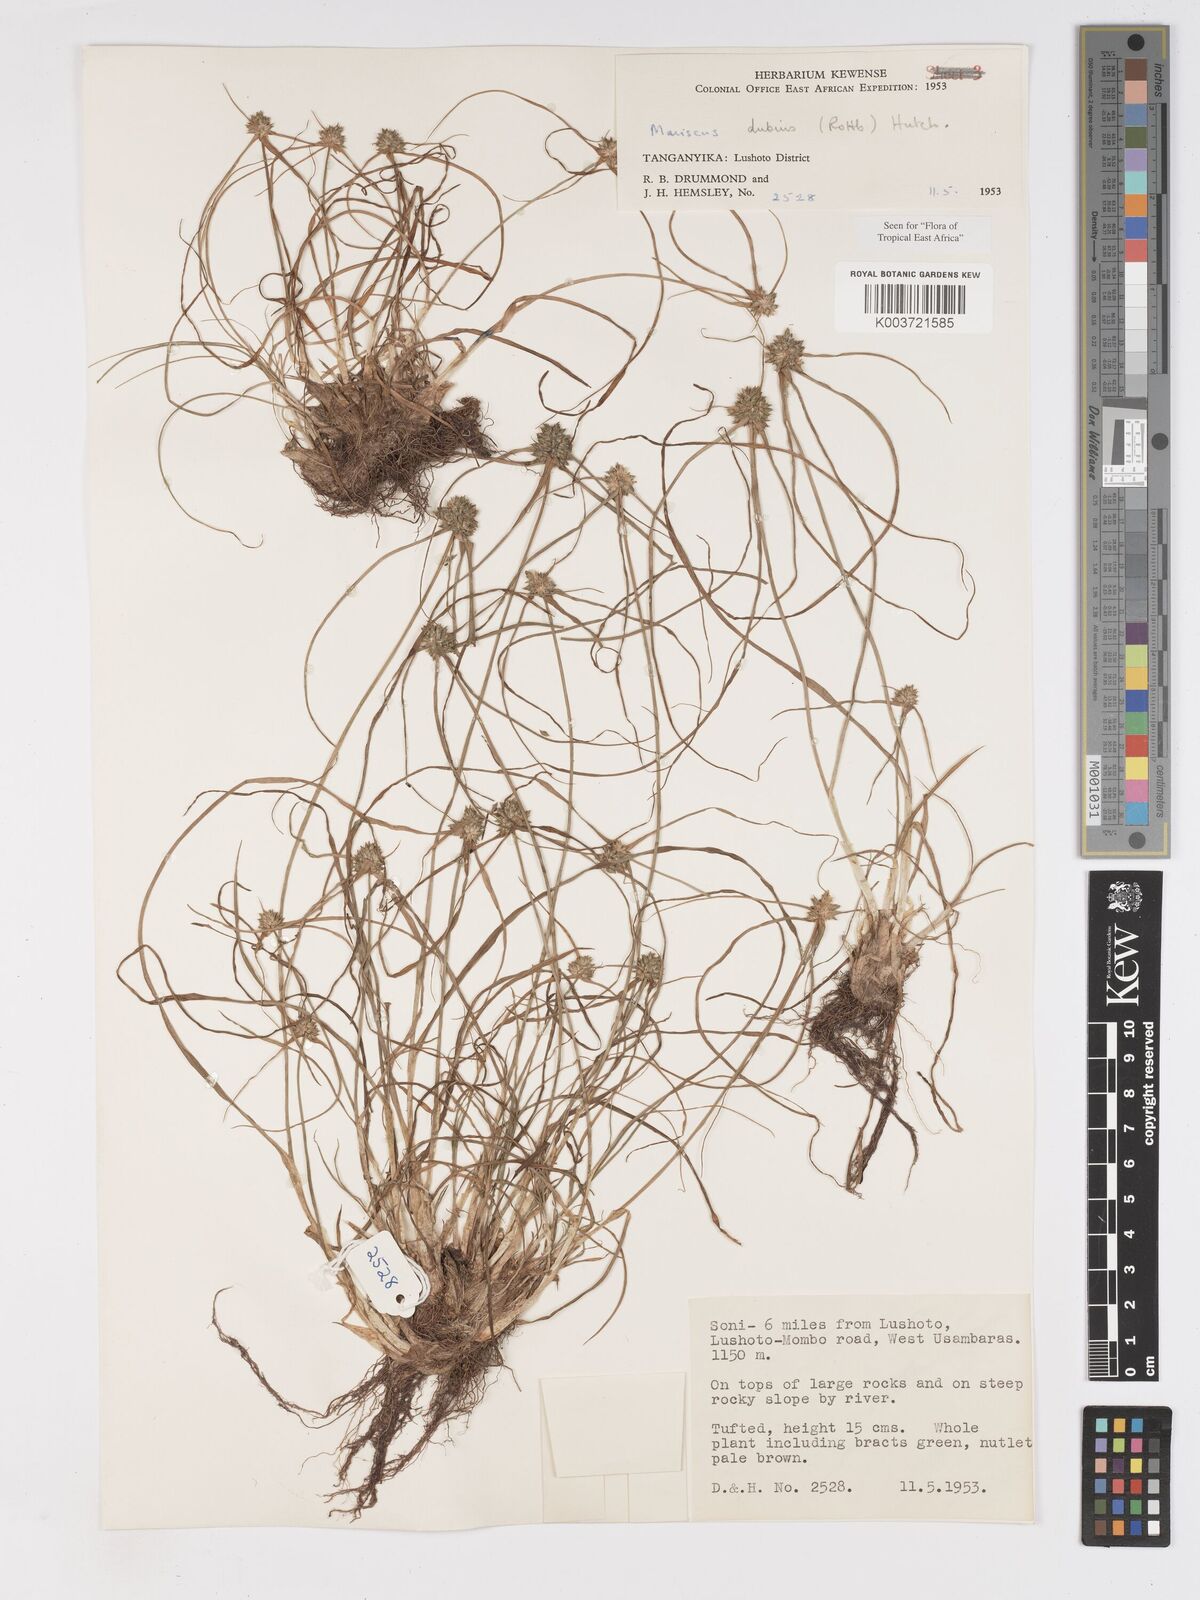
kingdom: Plantae
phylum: Tracheophyta
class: Liliopsida
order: Poales
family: Cyperaceae
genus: Cyperus
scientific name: Cyperus dubius
